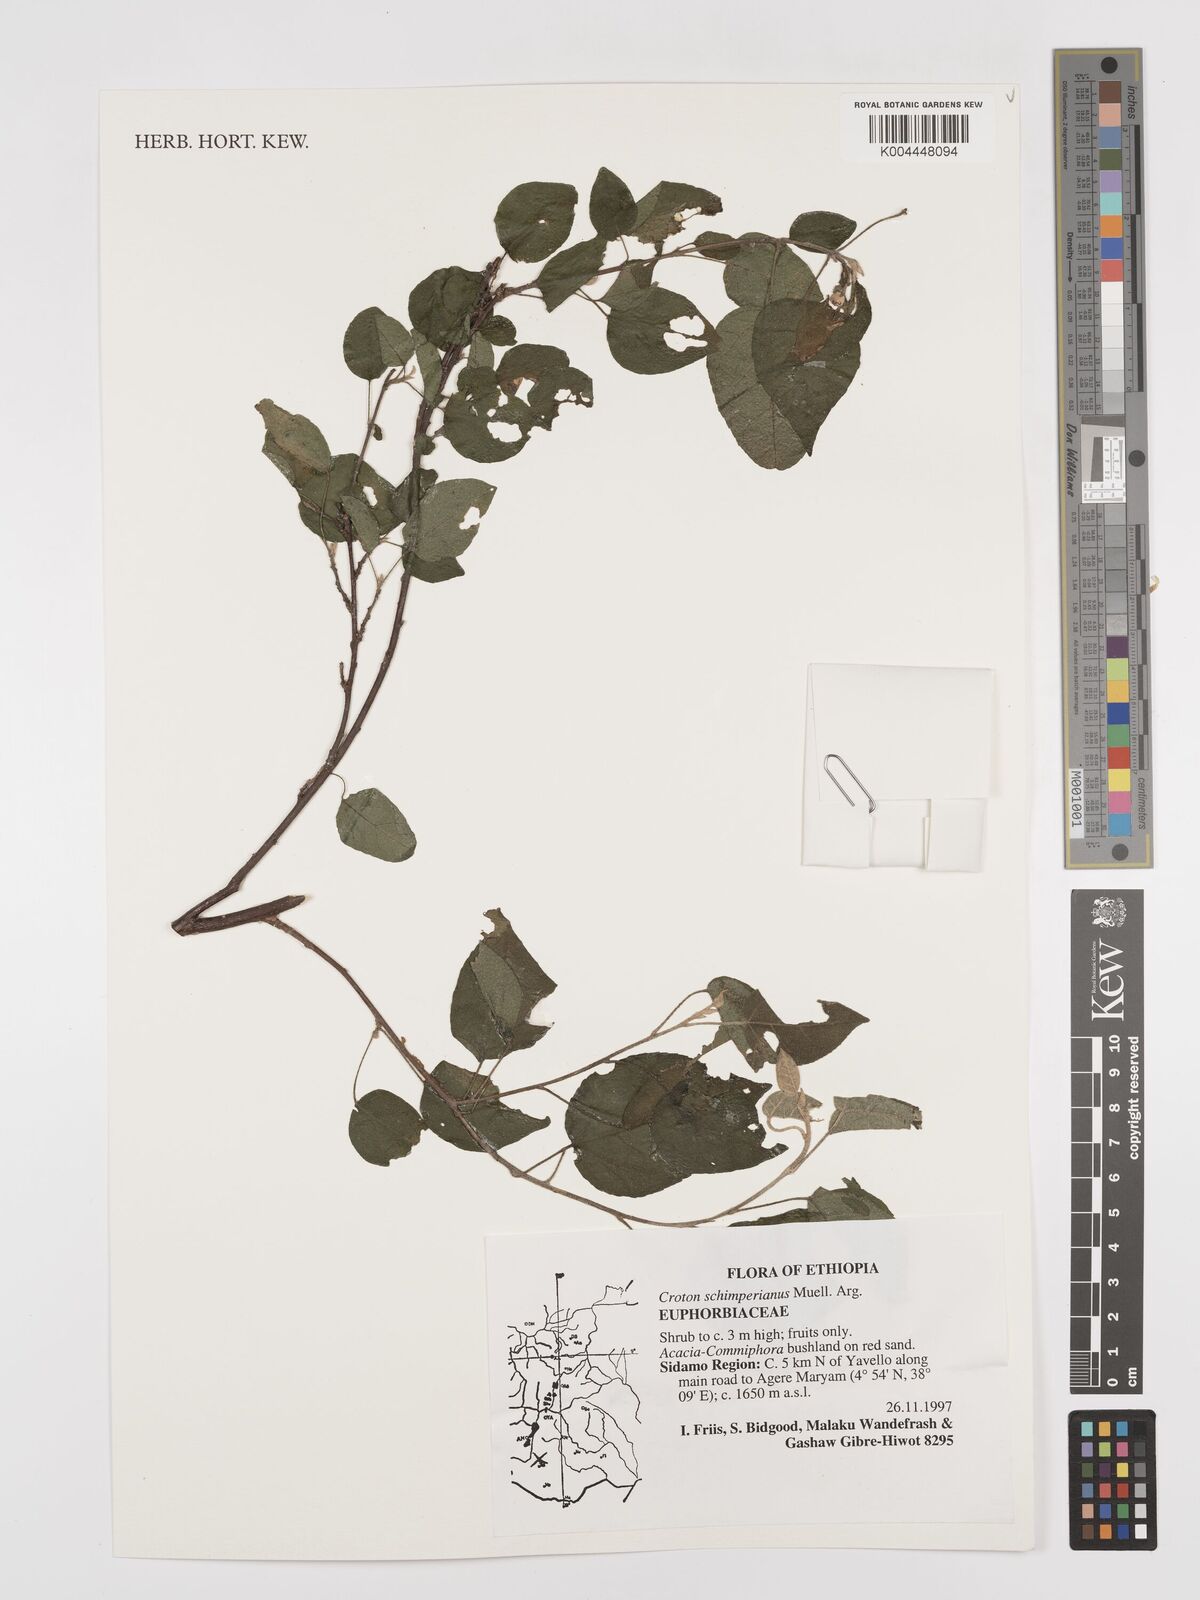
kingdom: Plantae
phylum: Tracheophyta
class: Magnoliopsida
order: Malpighiales
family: Euphorbiaceae
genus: Croton
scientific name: Croton schimperianus
